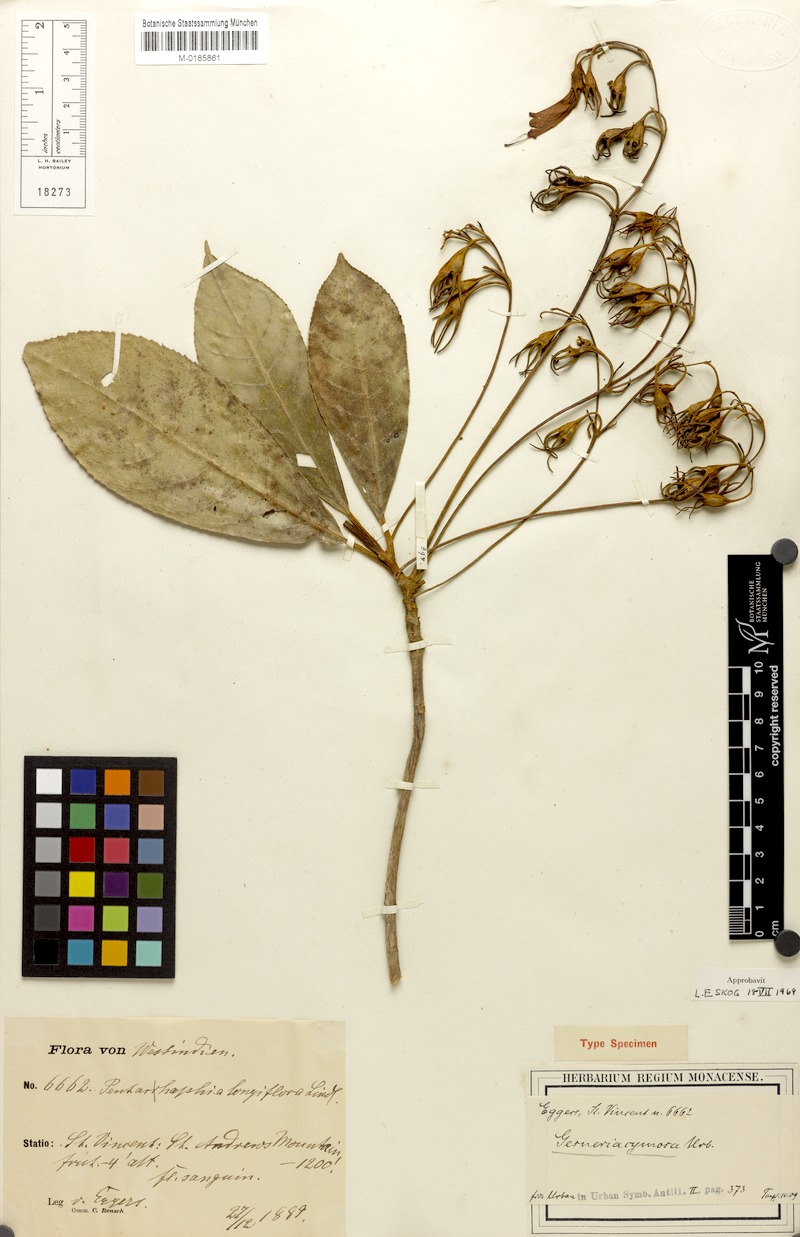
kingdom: Plantae
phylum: Tracheophyta
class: Magnoliopsida
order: Lamiales
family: Gesneriaceae
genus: Gesneria
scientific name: Gesneria ventricosa
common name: Dare meat
